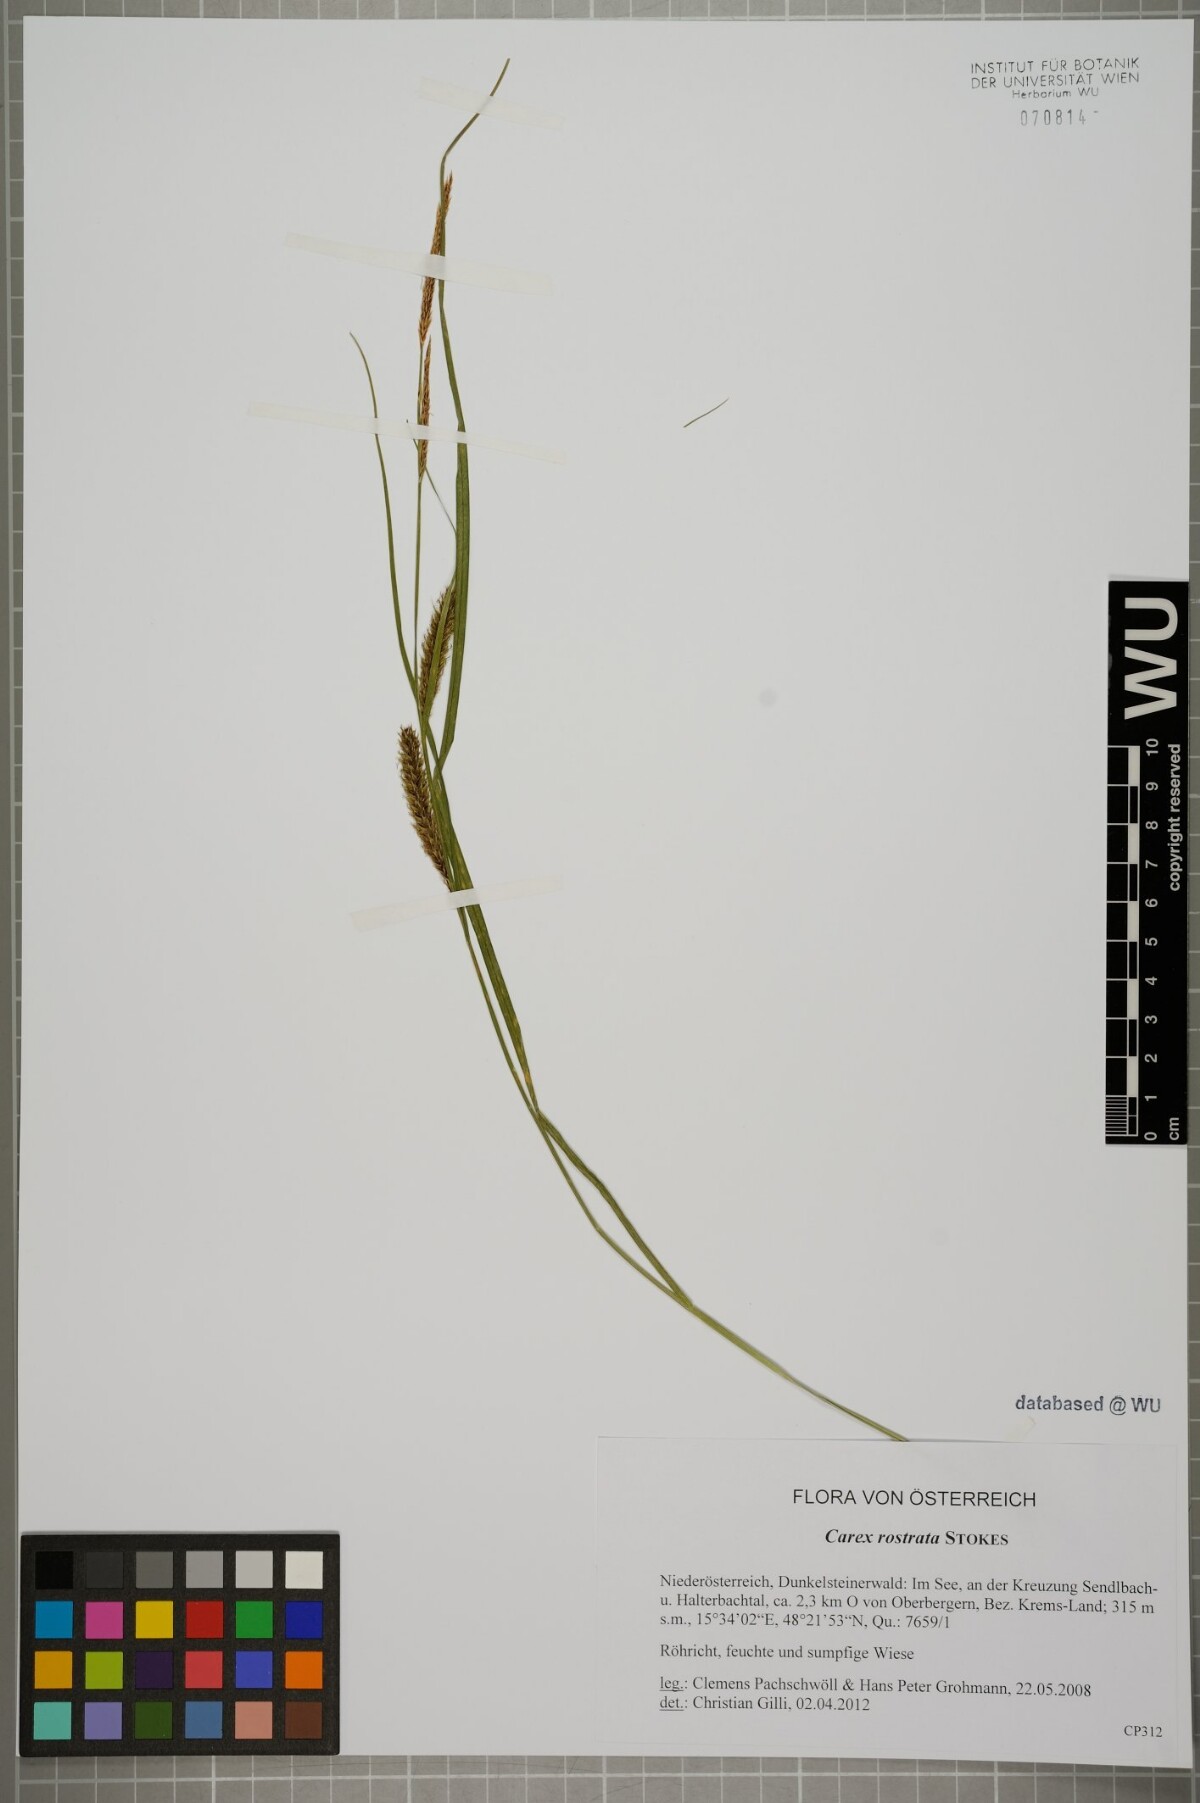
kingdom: Plantae
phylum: Tracheophyta
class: Liliopsida
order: Poales
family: Cyperaceae
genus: Carex
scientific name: Carex rostrata
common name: Bottle sedge
